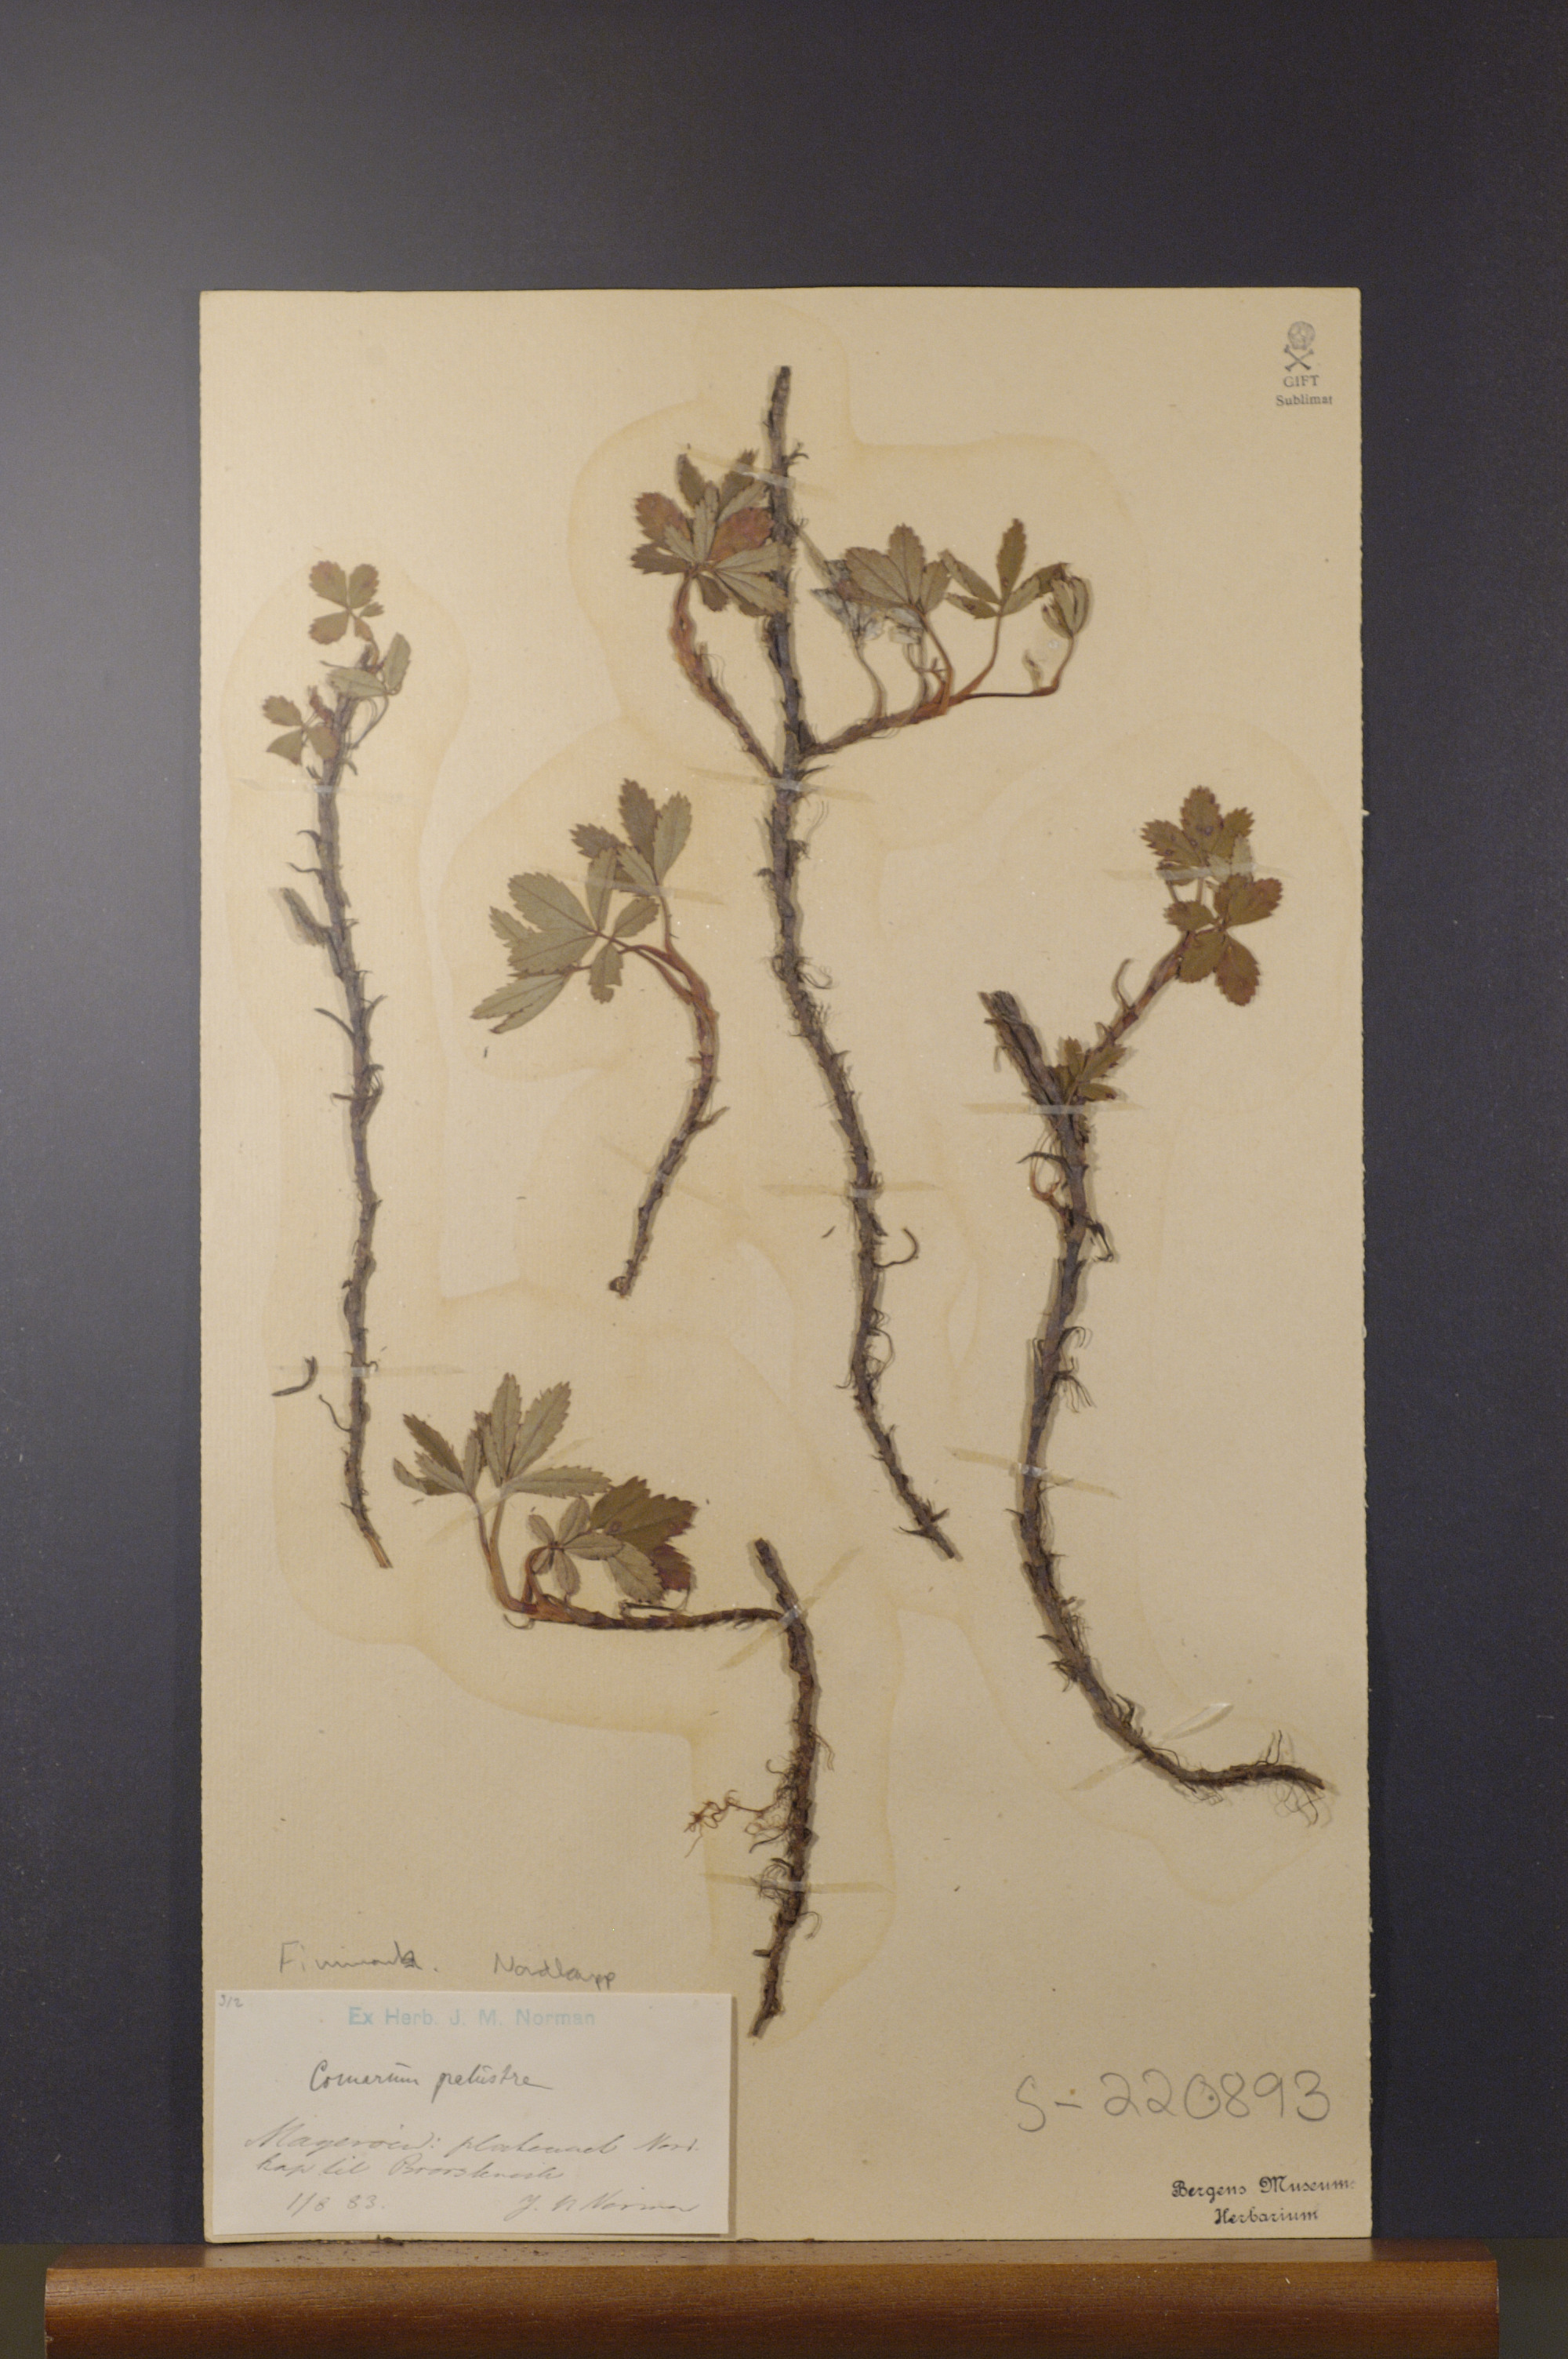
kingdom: Plantae
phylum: Tracheophyta
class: Magnoliopsida
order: Rosales
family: Rosaceae
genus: Comarum
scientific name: Comarum palustre
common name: Marsh cinquefoil
